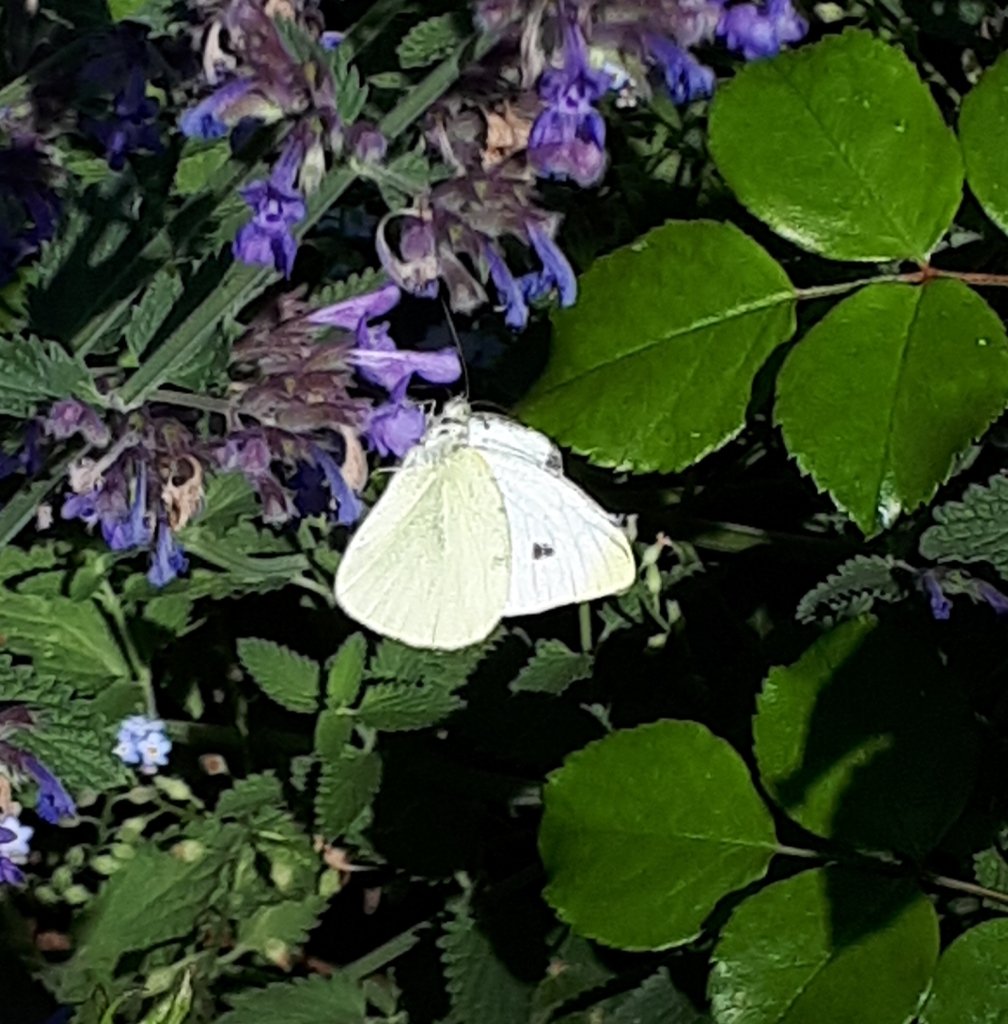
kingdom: Animalia
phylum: Arthropoda
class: Insecta
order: Lepidoptera
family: Pieridae
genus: Pieris
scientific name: Pieris rapae
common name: Cabbage White
